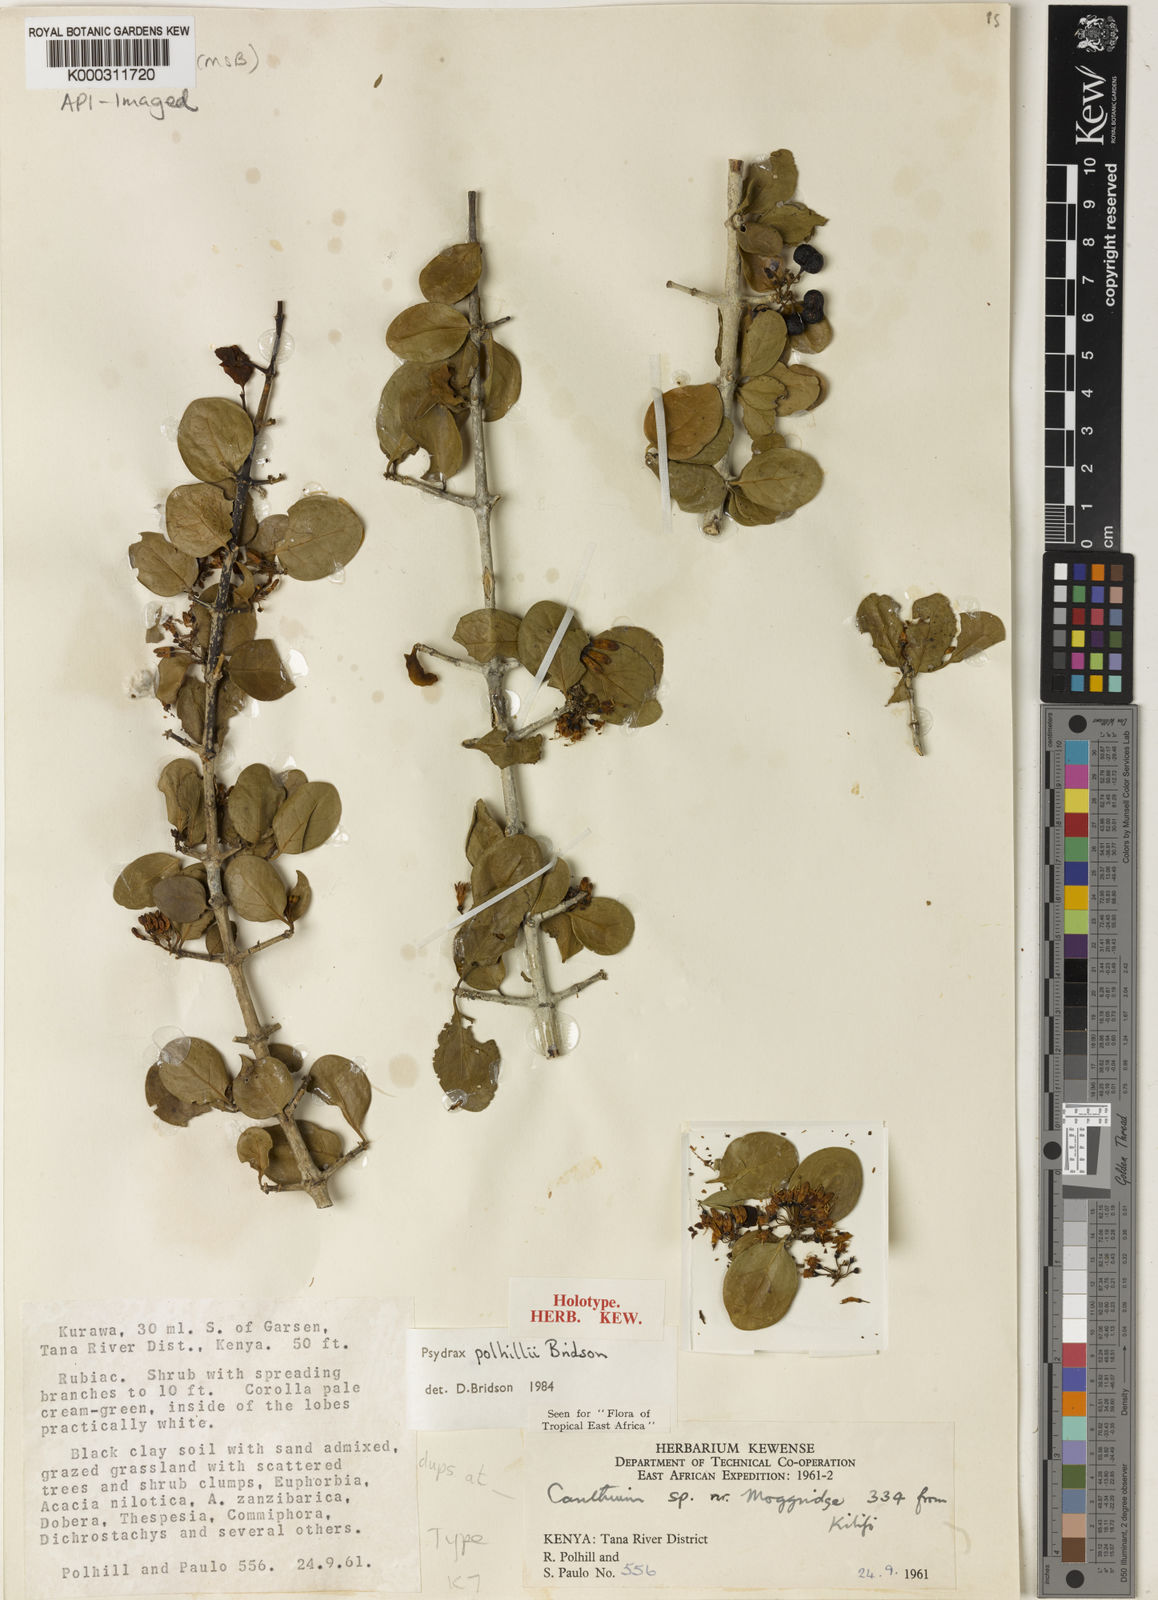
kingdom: Plantae
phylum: Tracheophyta
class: Magnoliopsida
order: Gentianales
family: Rubiaceae
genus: Psydrax
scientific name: Psydrax polhillii
